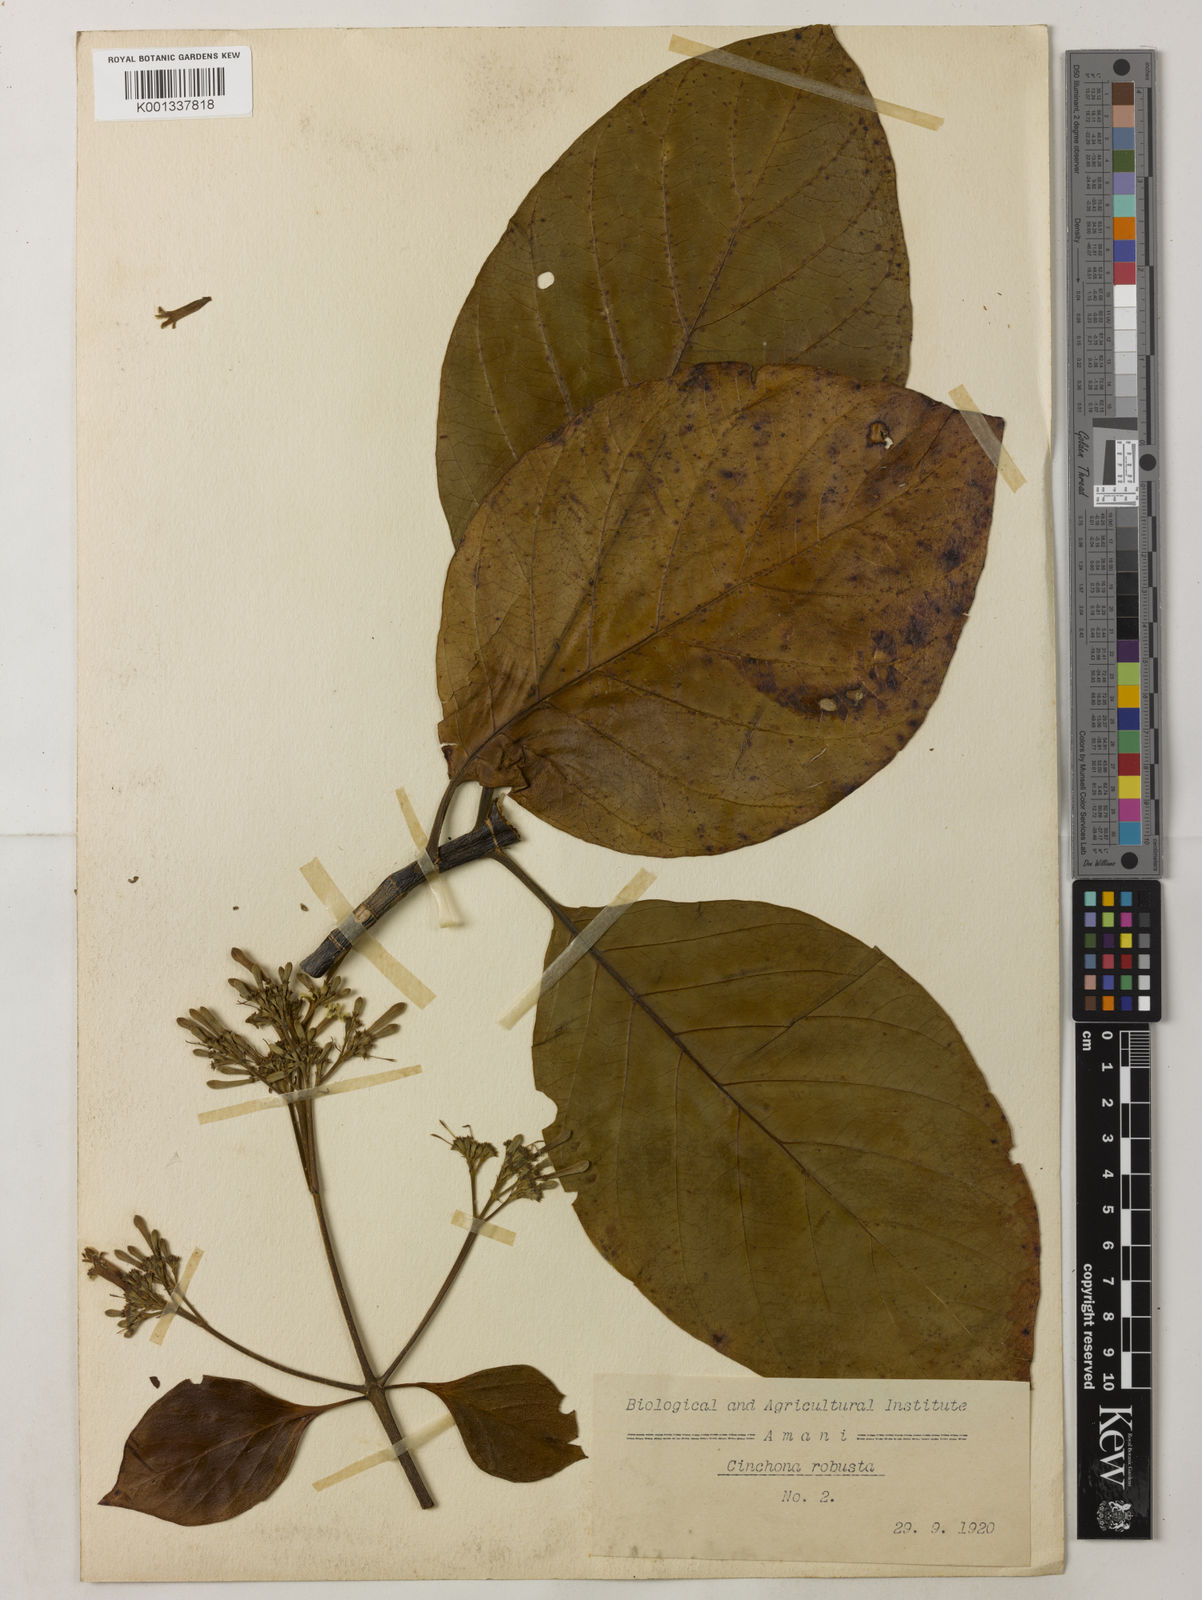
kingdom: Plantae
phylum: Tracheophyta
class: Magnoliopsida
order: Gentianales
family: Rubiaceae
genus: Cinchona
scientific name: Cinchona officinalis
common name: Lojabark
